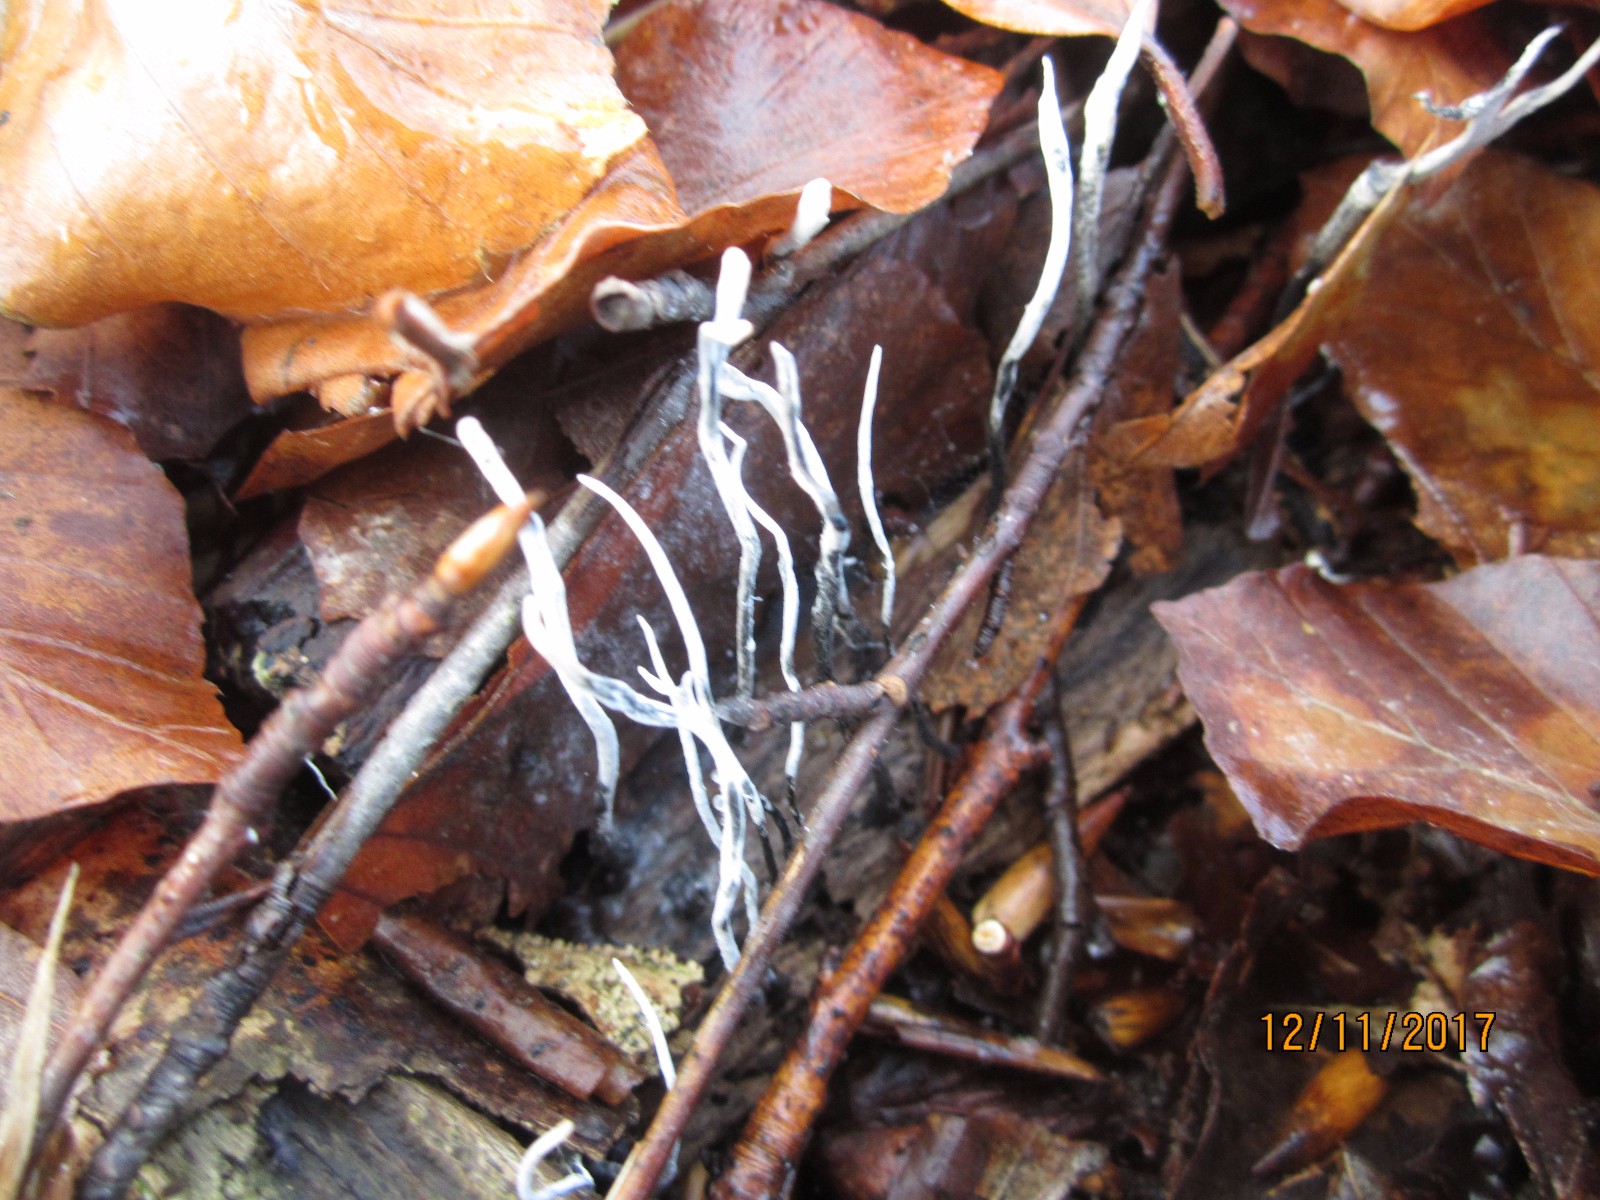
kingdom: Fungi
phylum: Ascomycota
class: Sordariomycetes
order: Xylariales
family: Xylariaceae
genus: Xylaria
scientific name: Xylaria hypoxylon
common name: grenet stødsvamp
